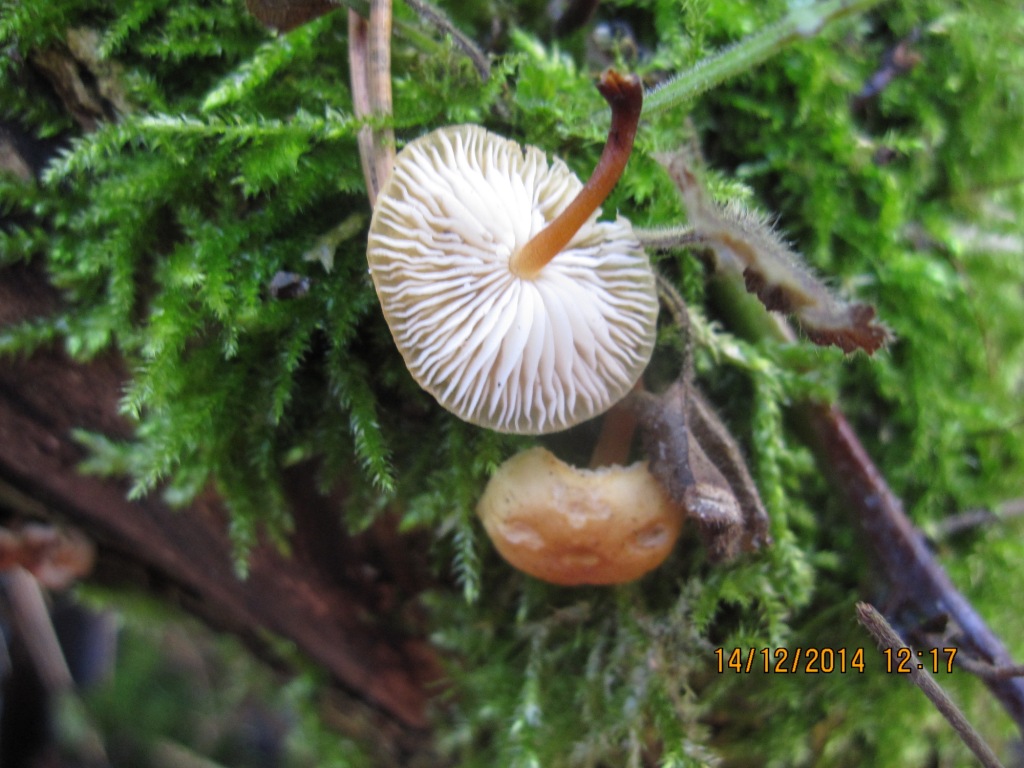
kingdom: Fungi
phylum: Basidiomycota
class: Agaricomycetes
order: Agaricales
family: Physalacriaceae
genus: Flammulina
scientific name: Flammulina velutipes
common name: gul fløjlsfod
